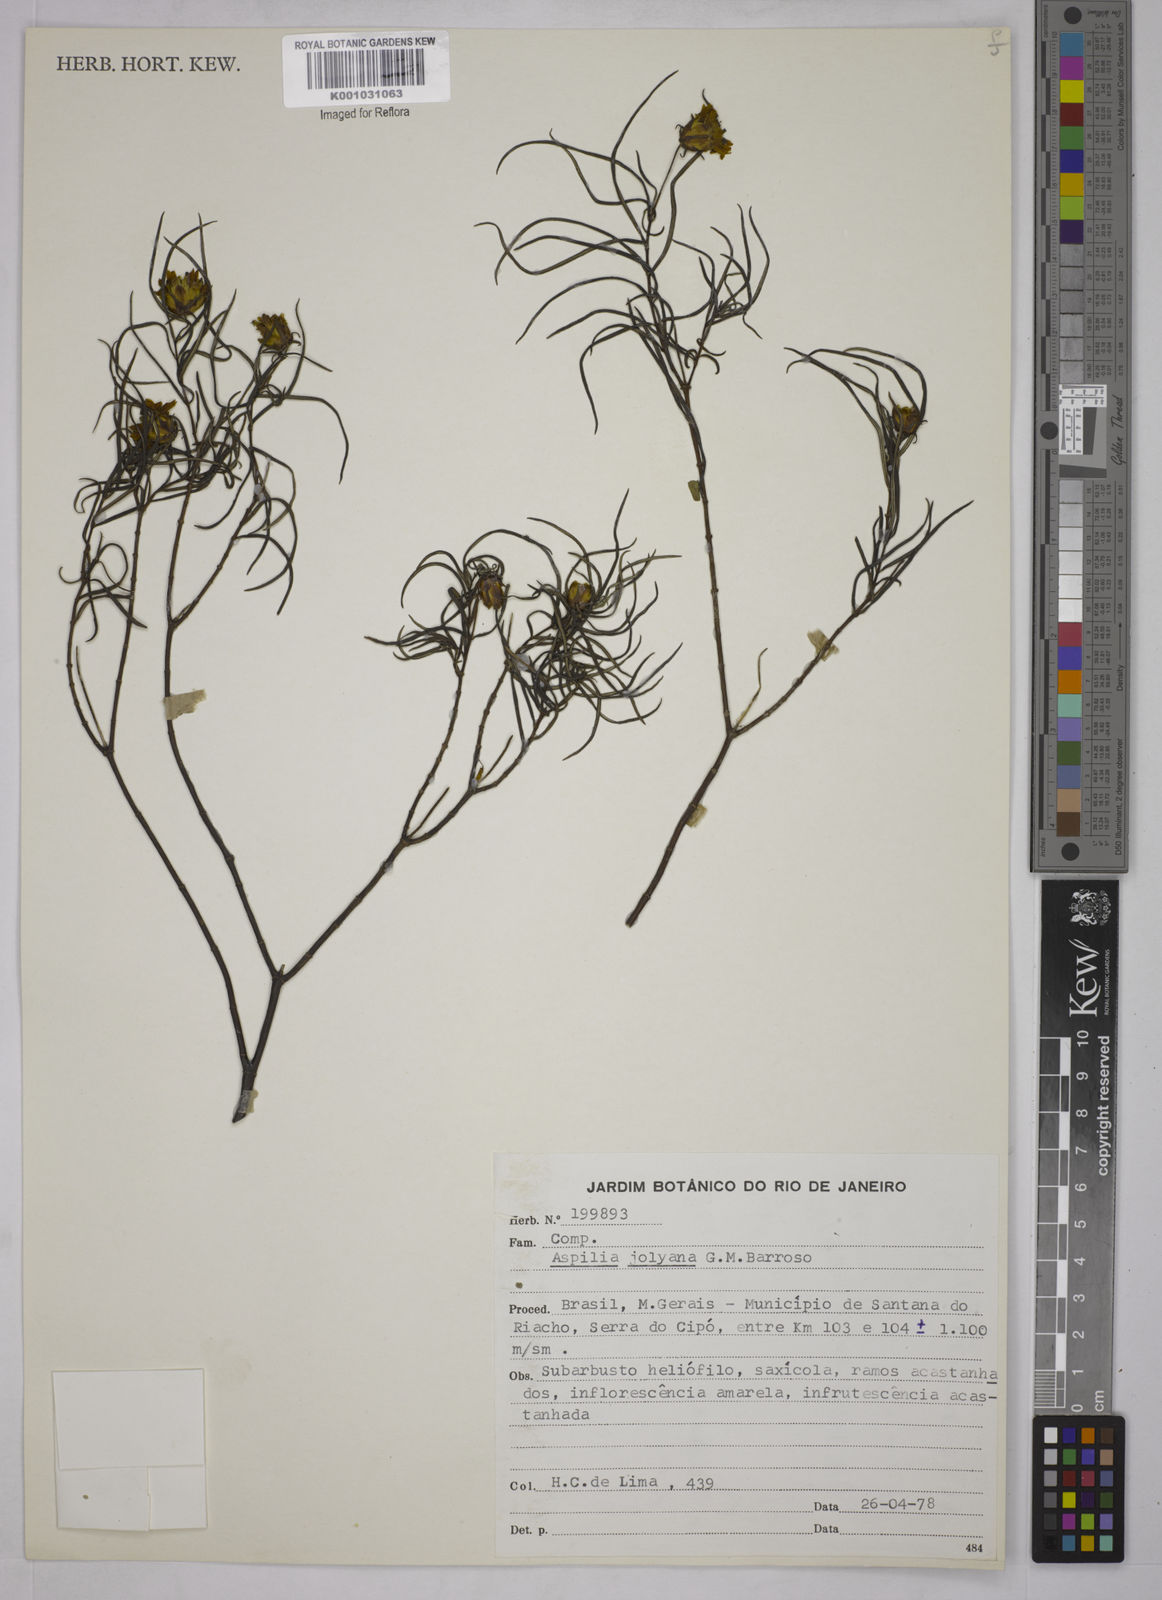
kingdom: Plantae
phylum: Tracheophyta
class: Magnoliopsida
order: Asterales
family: Asteraceae
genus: Aspilia
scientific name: Aspilia jolyana
